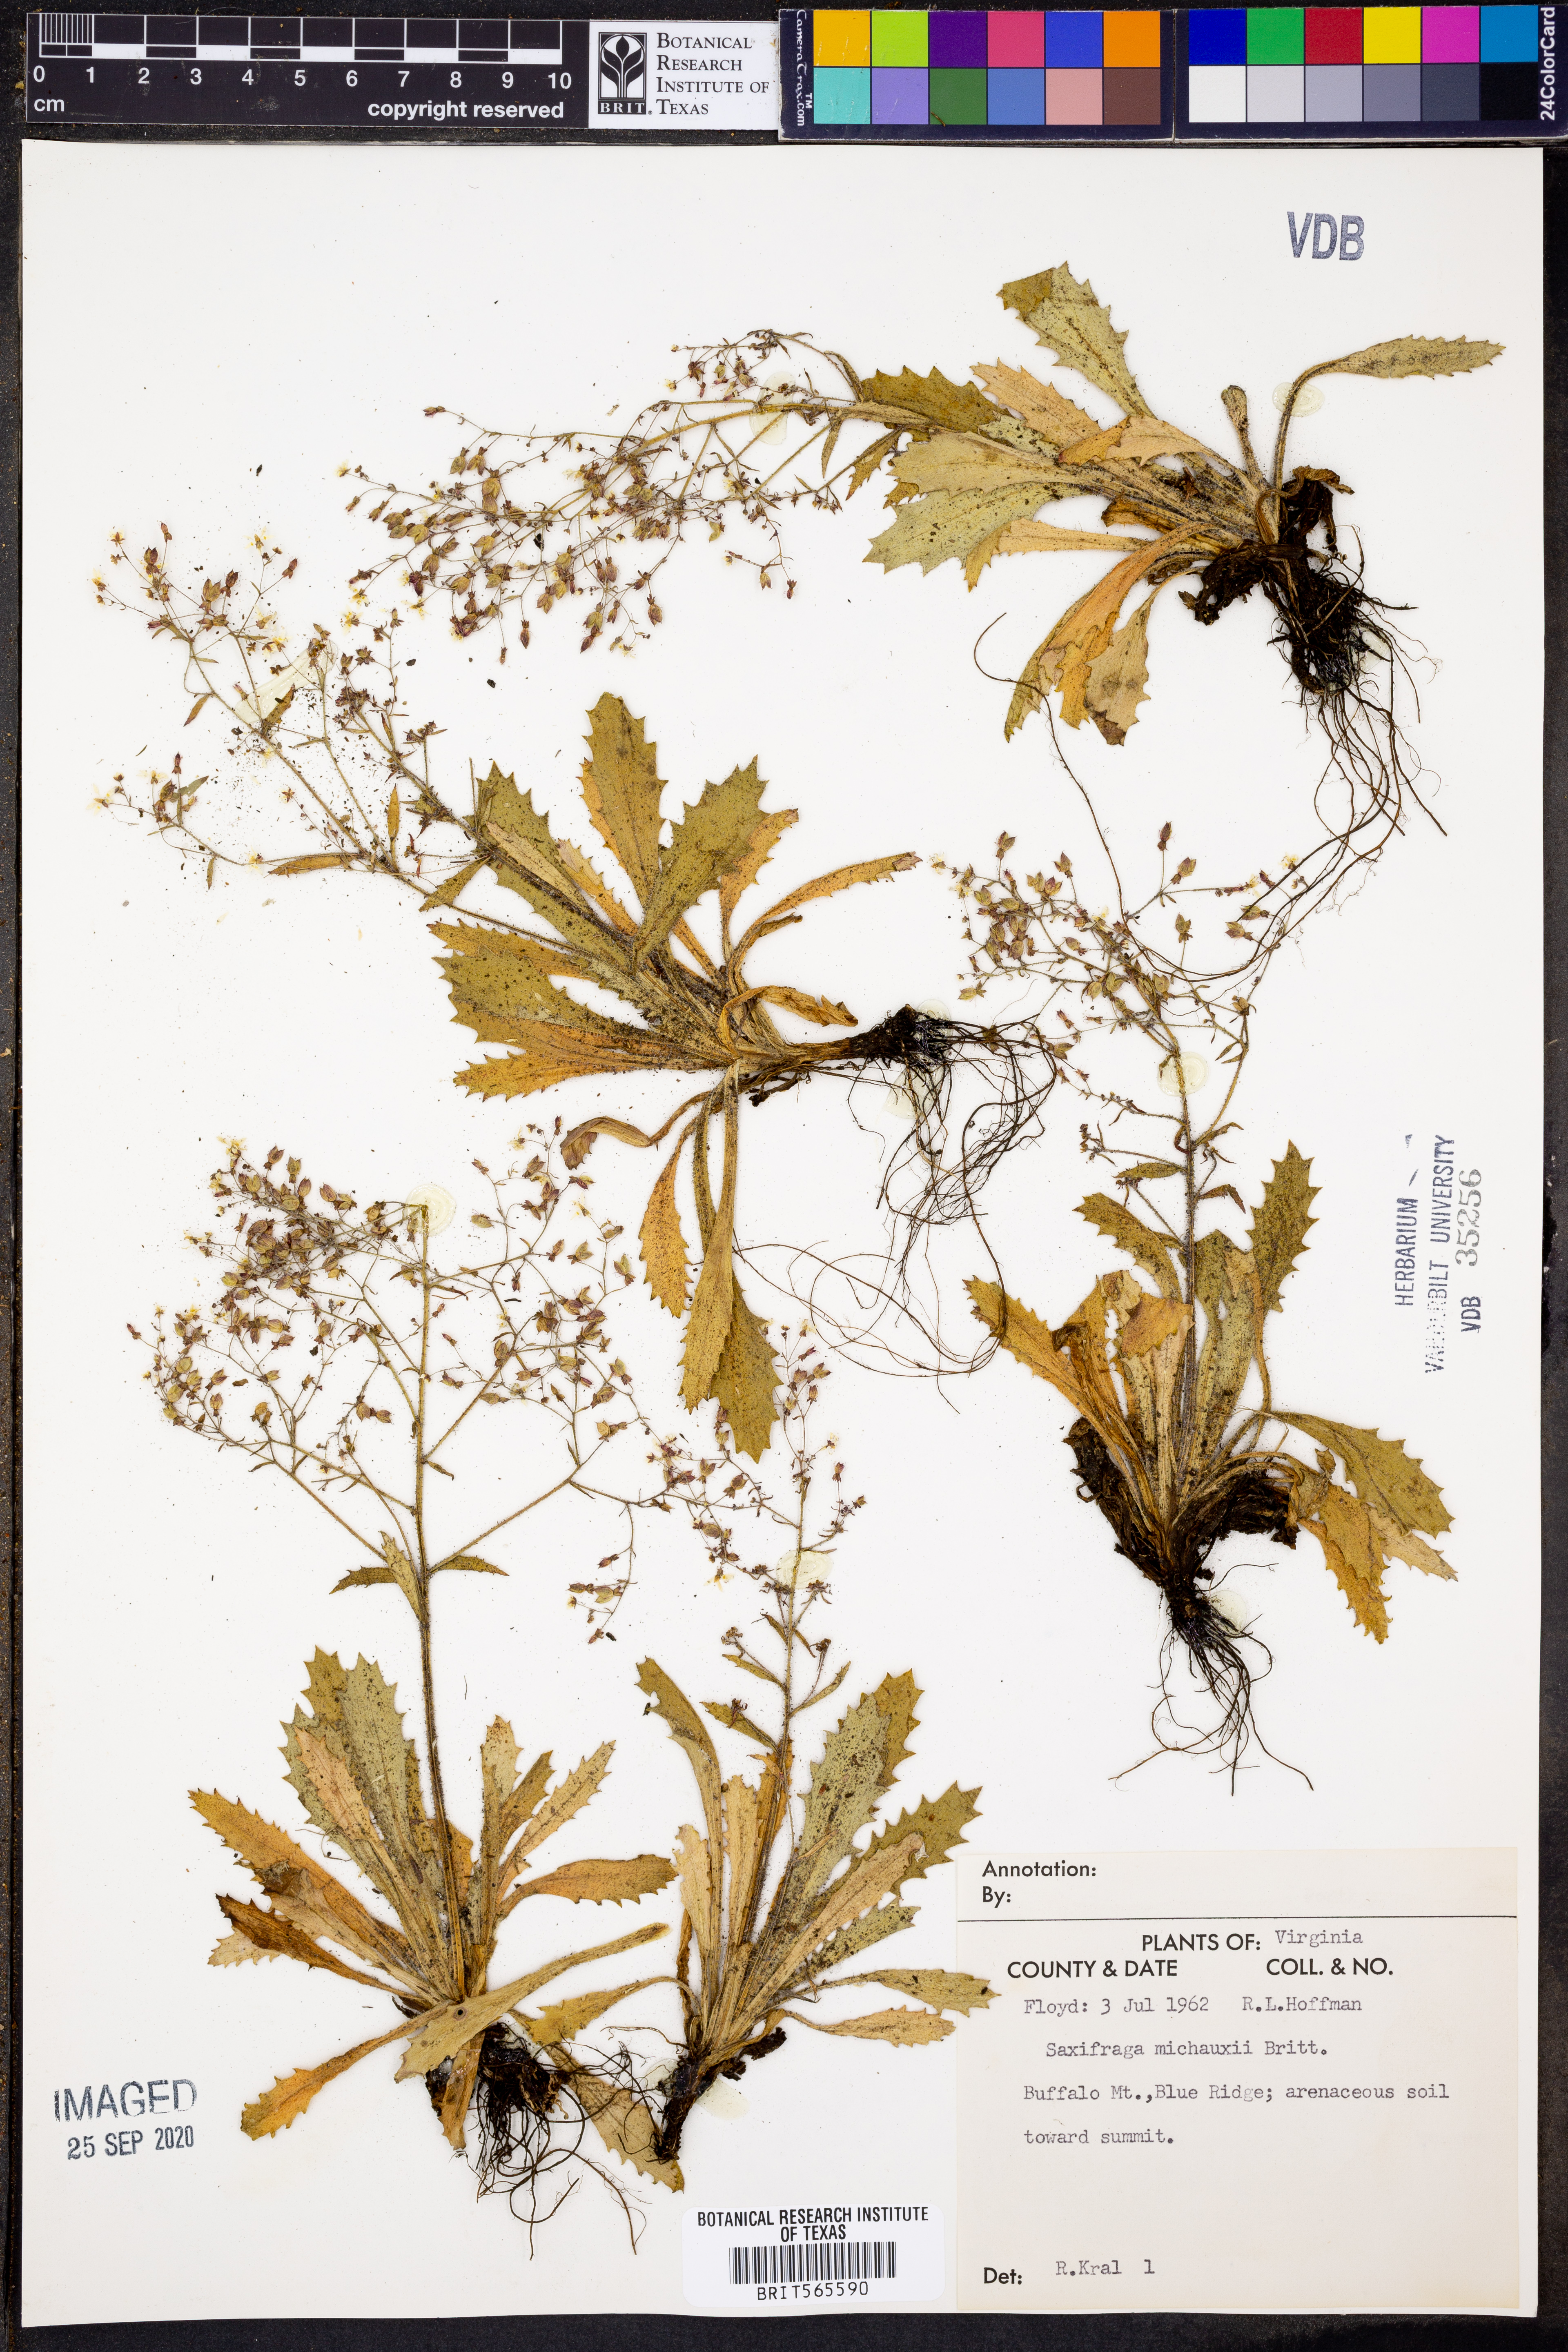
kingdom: Plantae
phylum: Tracheophyta
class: Magnoliopsida
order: Saxifragales
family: Saxifragaceae
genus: Micranthes
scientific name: Micranthes petiolaris
